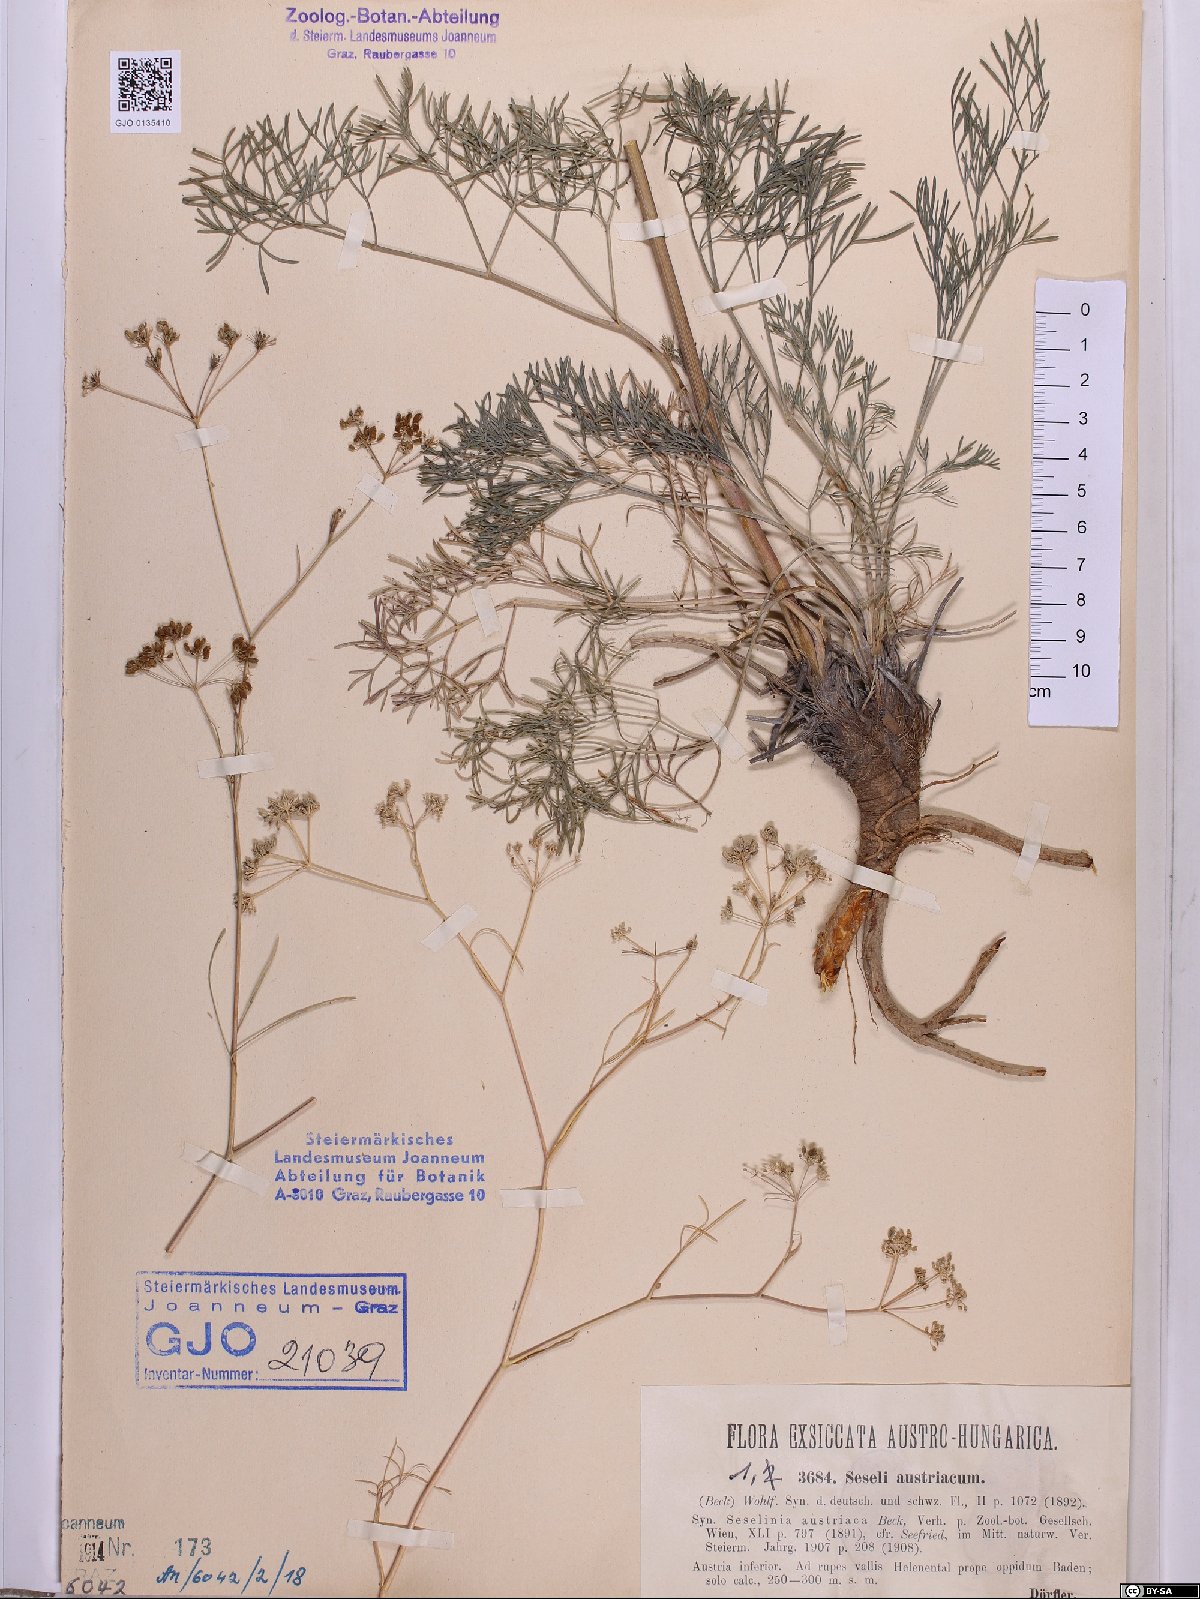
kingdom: Plantae
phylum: Tracheophyta
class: Magnoliopsida
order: Apiales
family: Apiaceae
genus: Seseli
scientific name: Seseli austriacum
